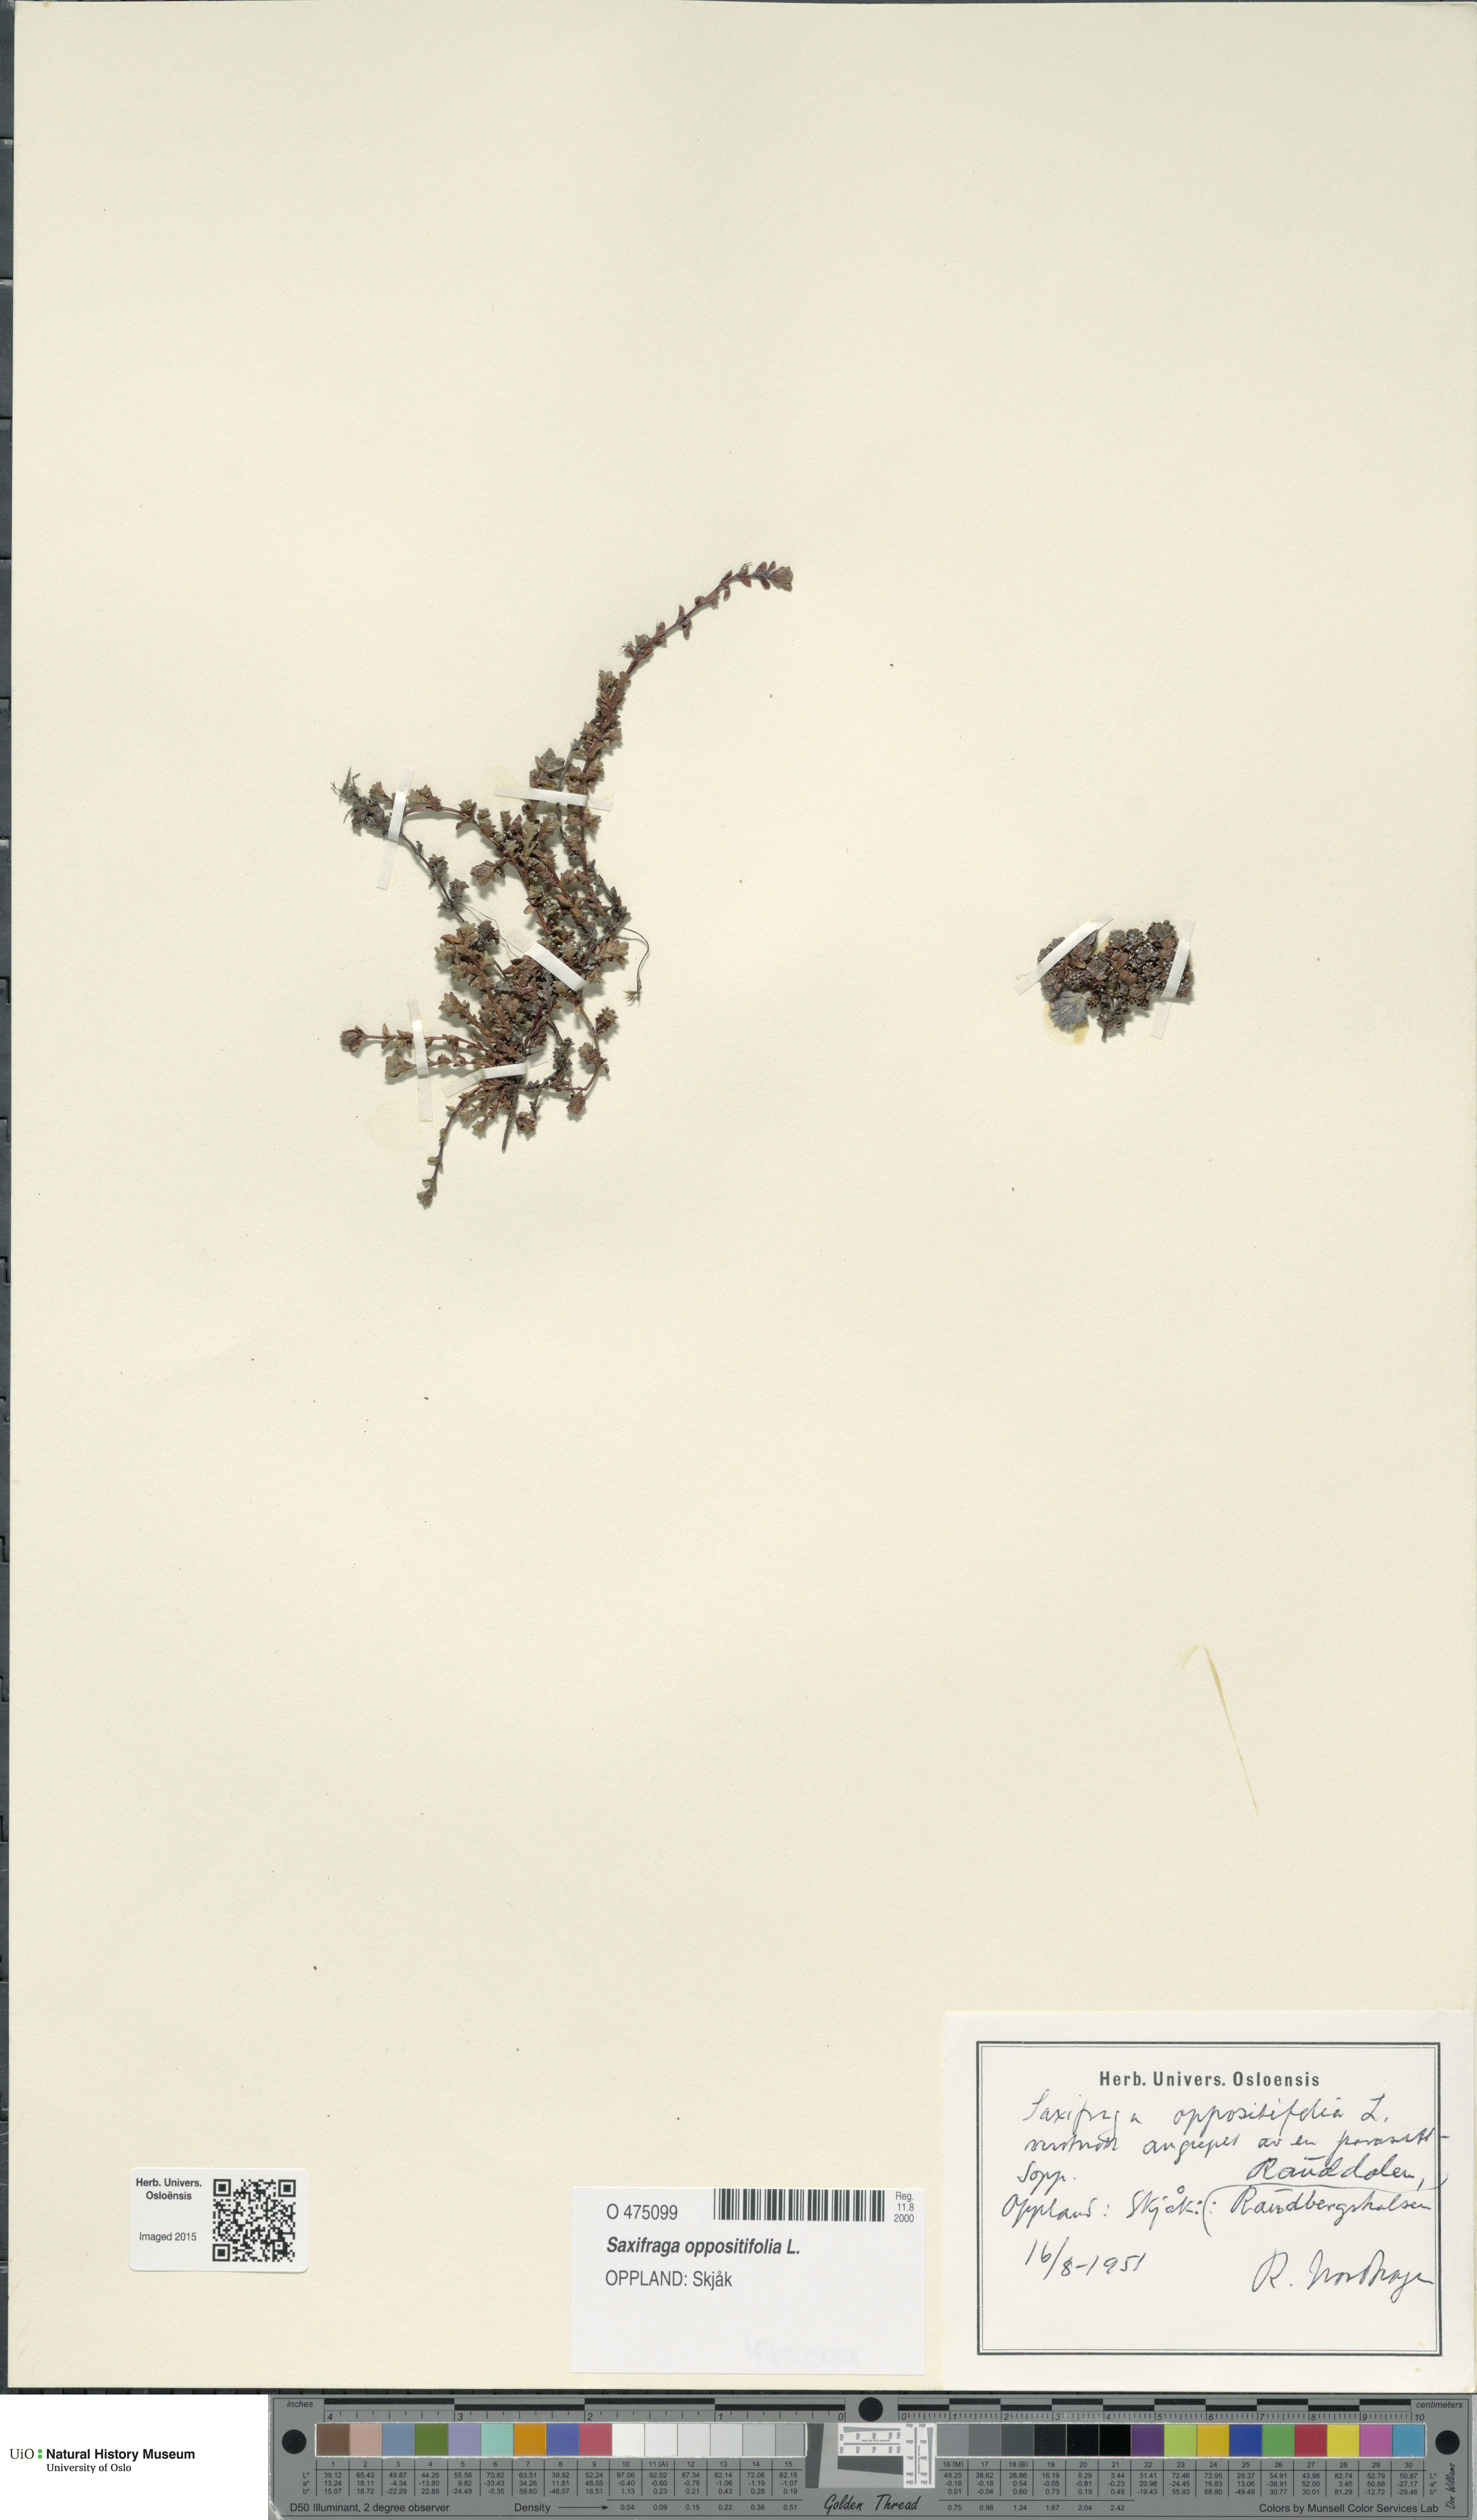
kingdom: Plantae
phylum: Tracheophyta
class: Magnoliopsida
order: Saxifragales
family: Saxifragaceae
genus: Saxifraga
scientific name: Saxifraga oppositifolia
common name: Purple saxifrage
